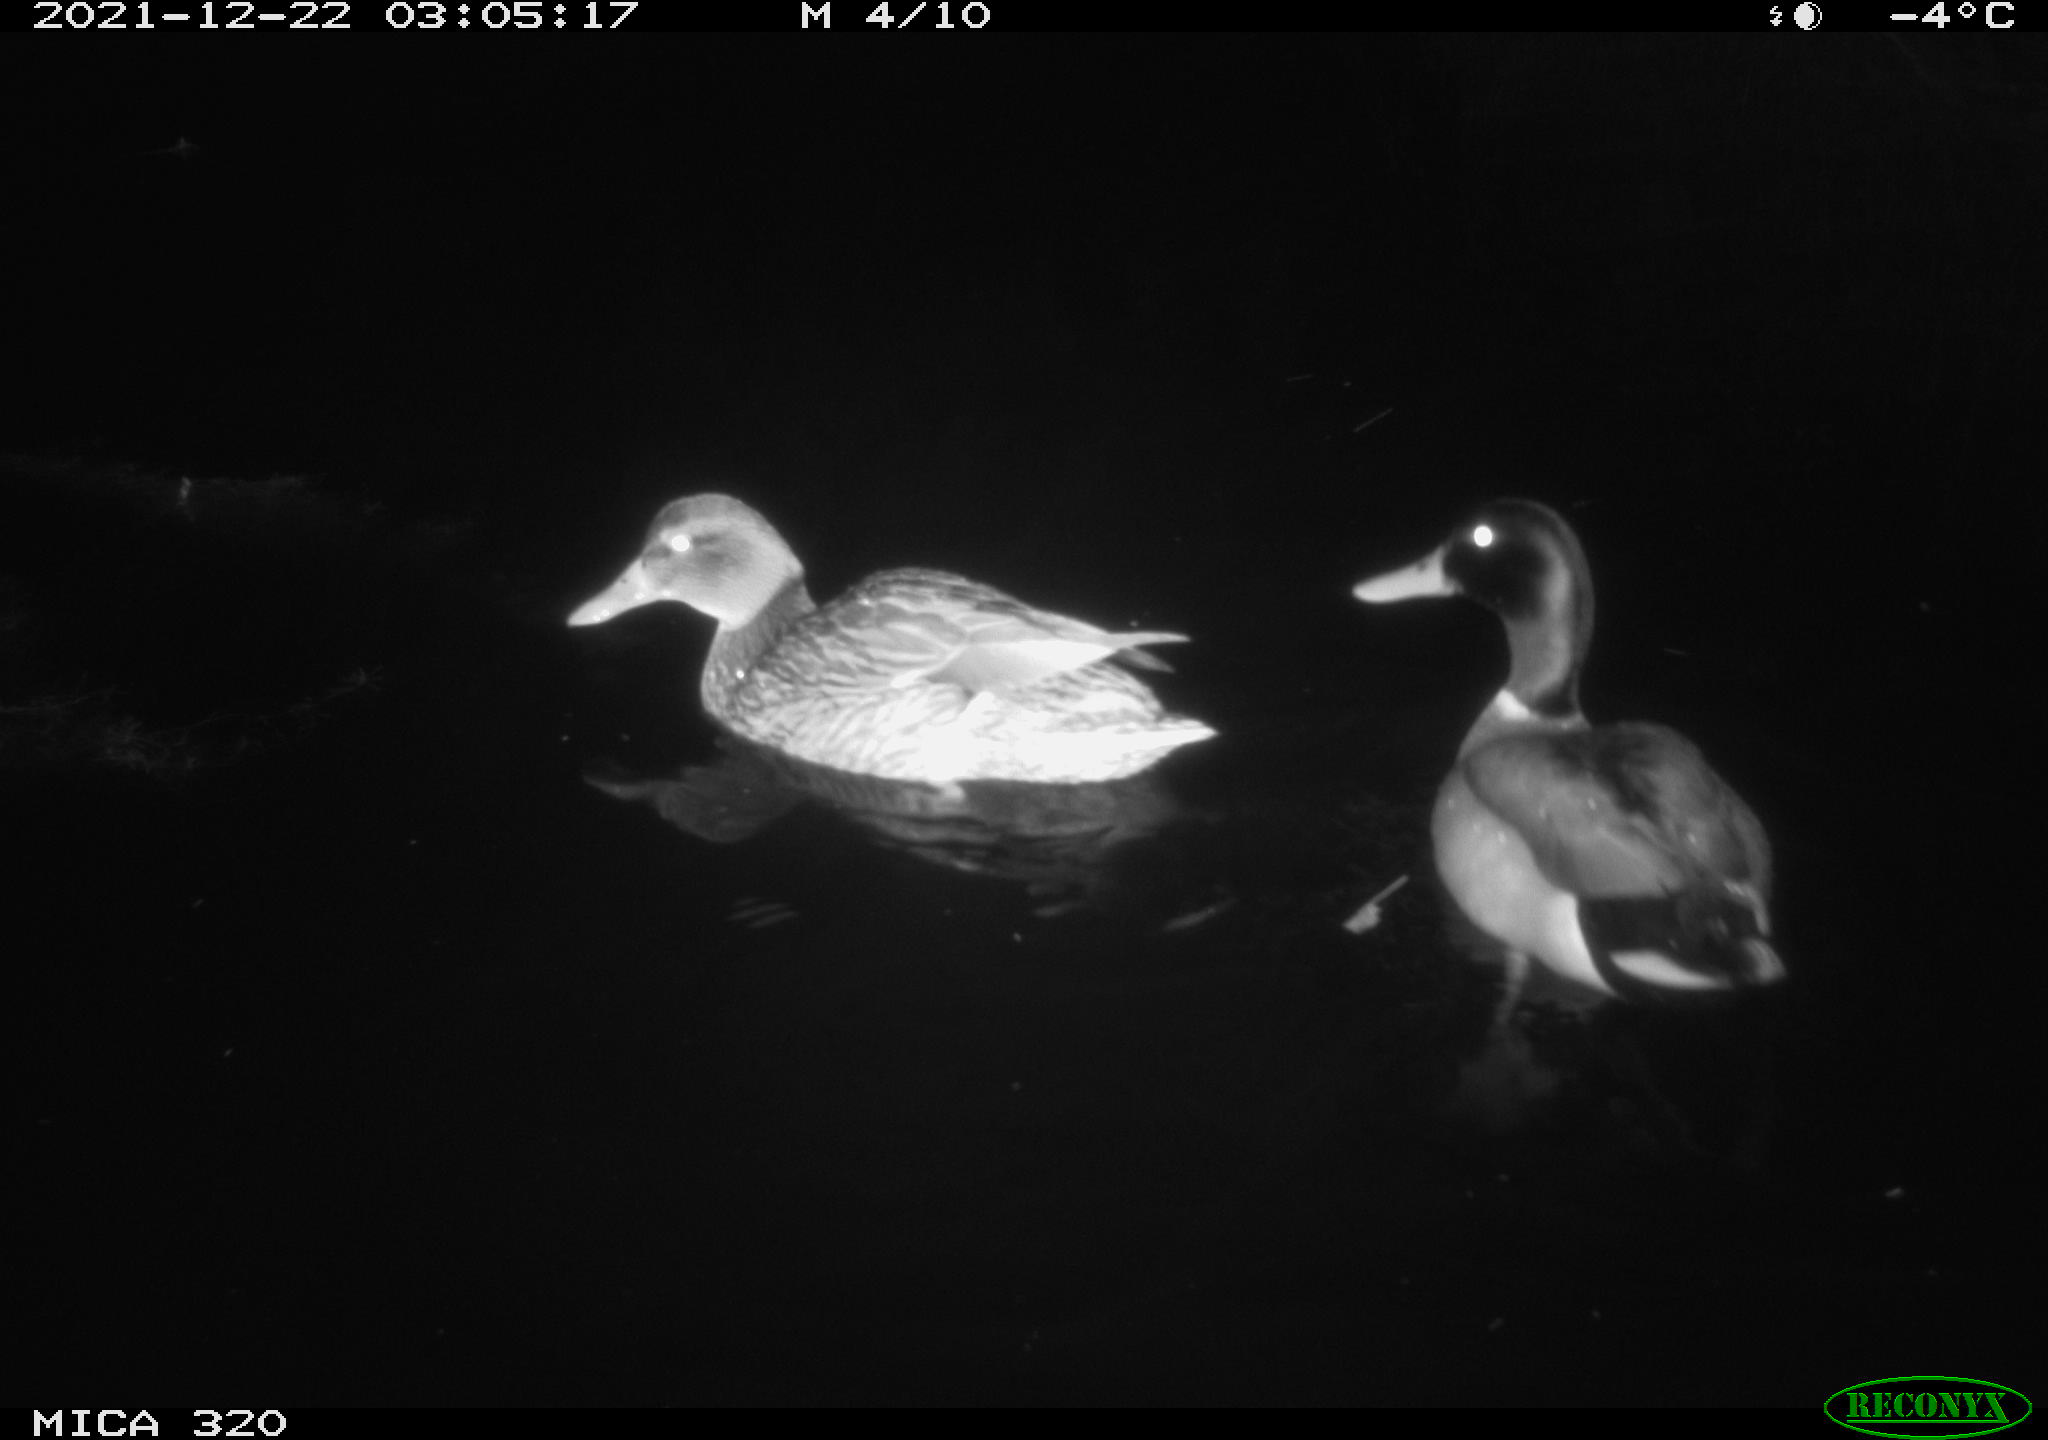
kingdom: Animalia
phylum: Chordata
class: Aves
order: Anseriformes
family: Anatidae
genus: Anas
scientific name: Anas platyrhynchos
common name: Mallard
